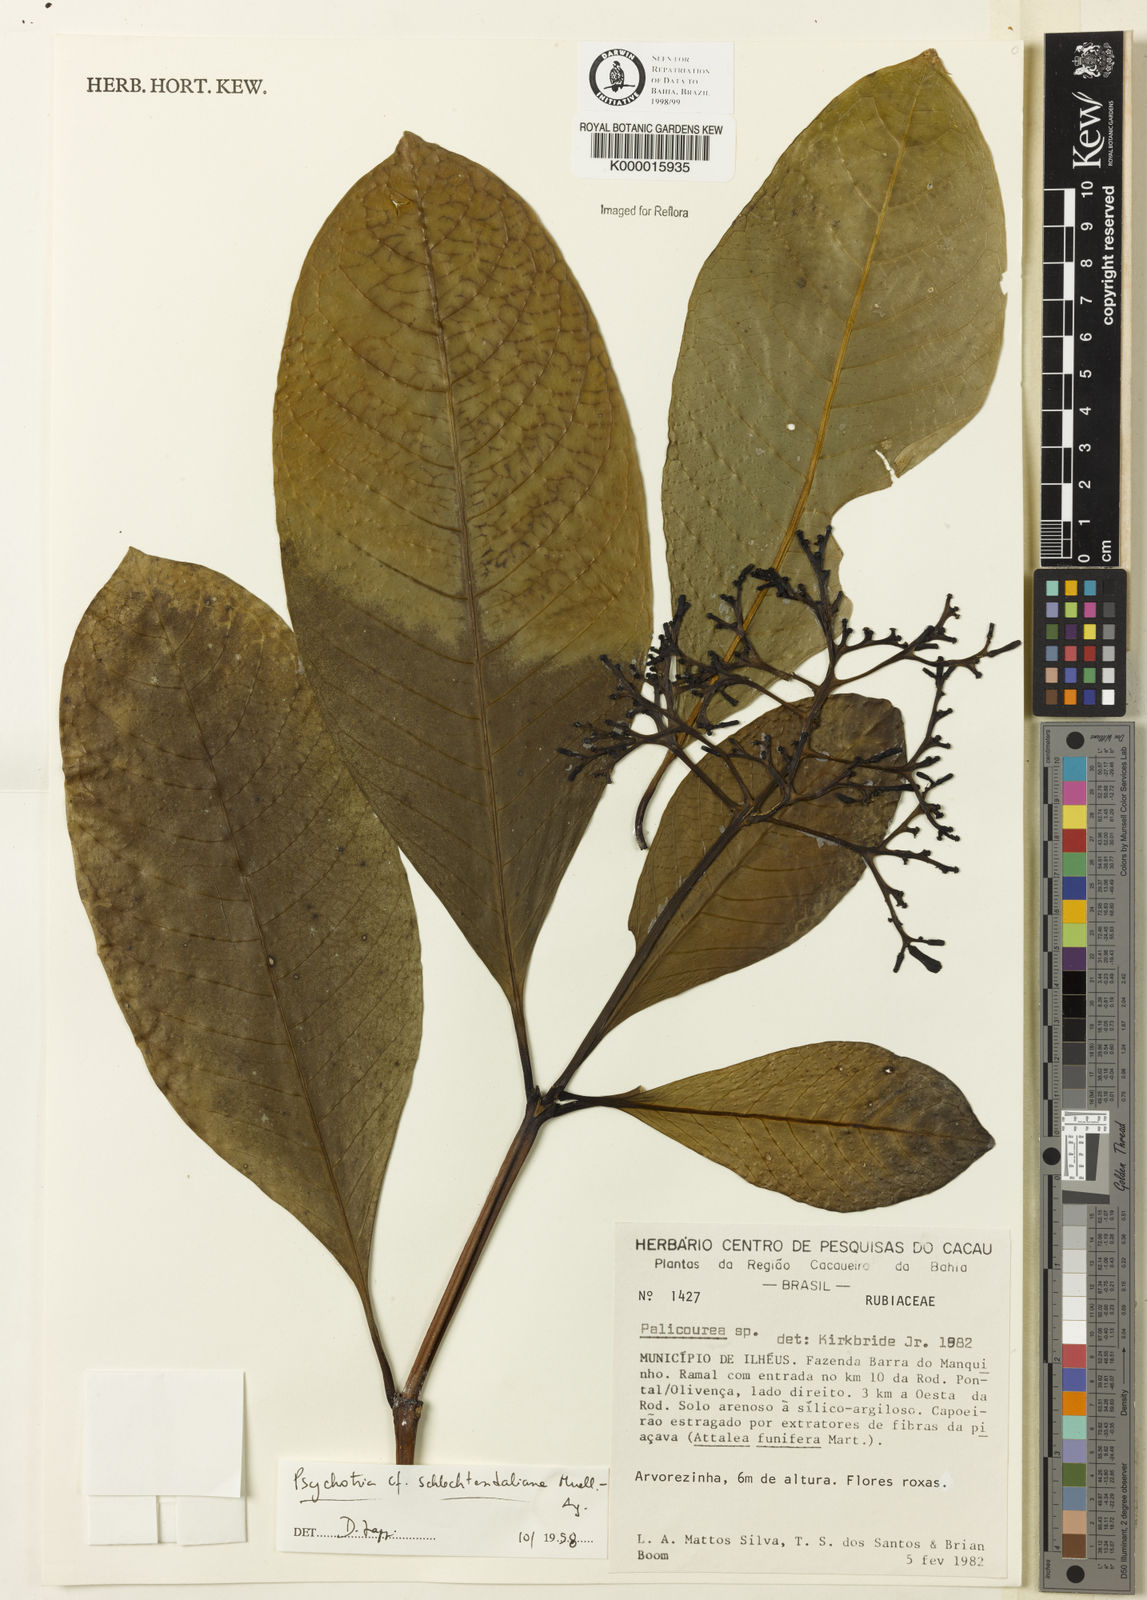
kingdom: Plantae
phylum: Tracheophyta
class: Magnoliopsida
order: Gentianales
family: Rubiaceae
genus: Palicourea
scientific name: Palicourea
